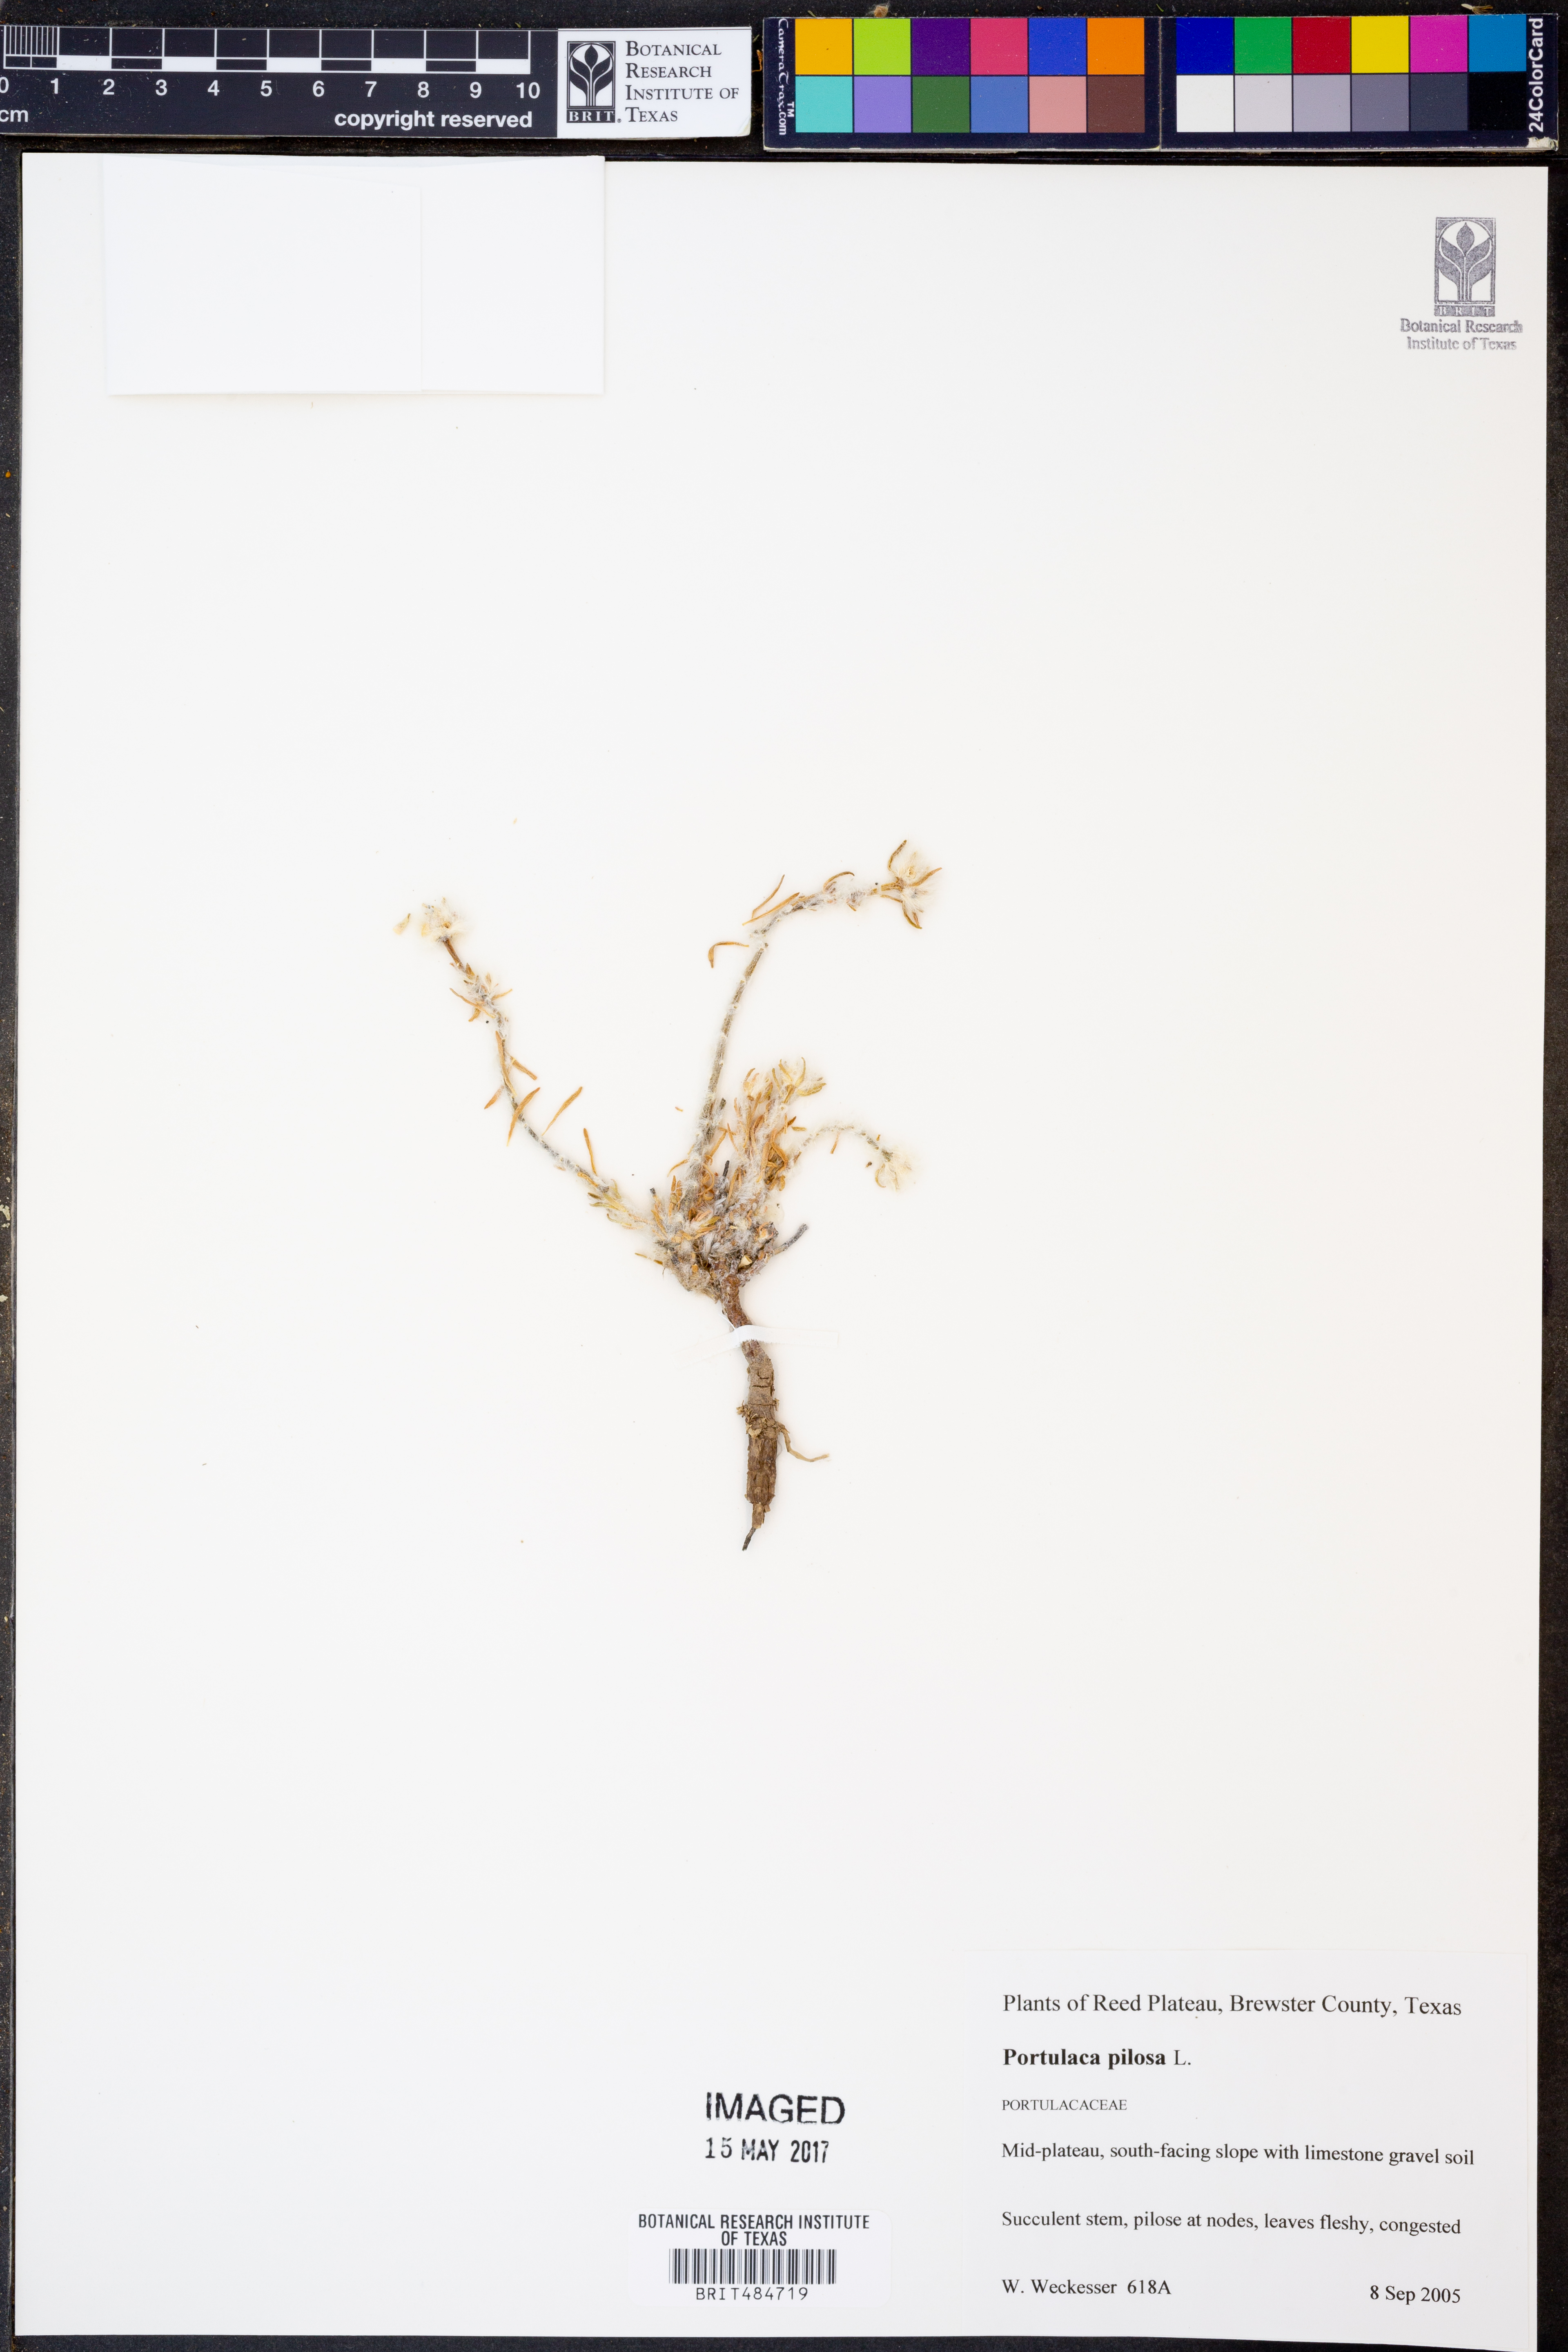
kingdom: Plantae
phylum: Tracheophyta
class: Magnoliopsida
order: Caryophyllales
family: Portulacaceae
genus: Portulaca
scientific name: Portulaca pilosa
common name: Kiss me quick
